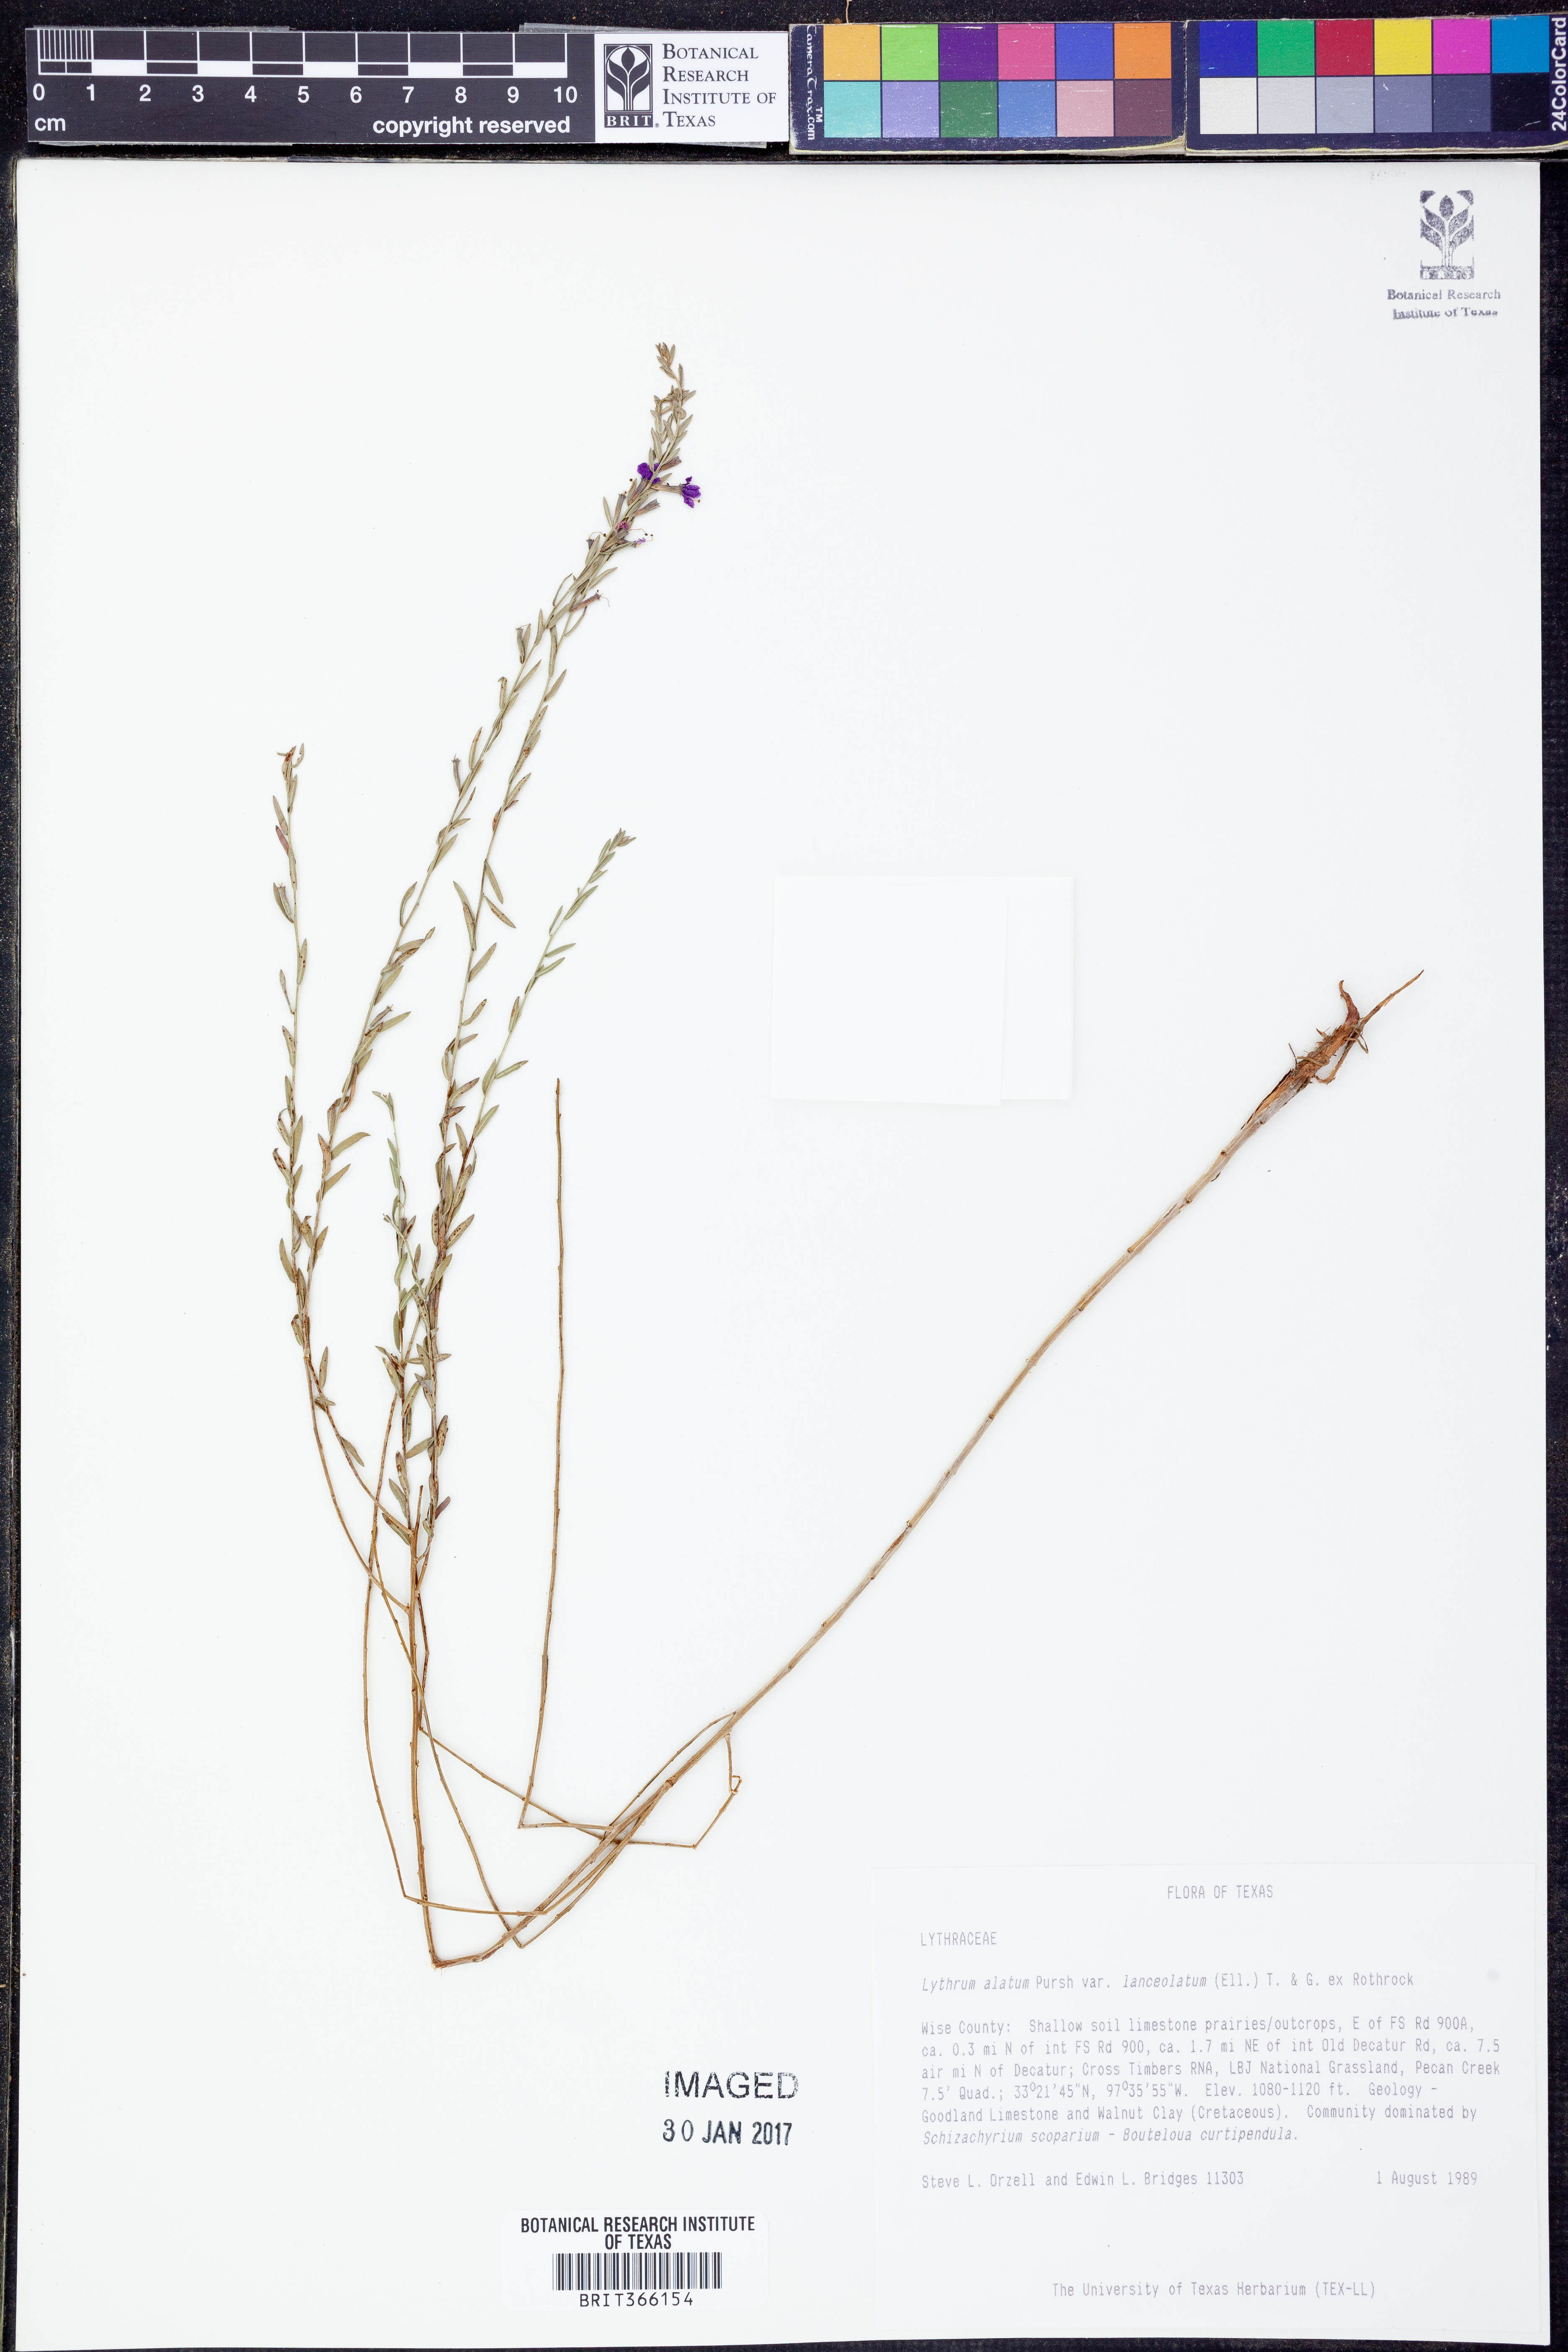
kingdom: Plantae
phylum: Tracheophyta
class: Magnoliopsida
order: Myrtales
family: Lythraceae
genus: Lythrum
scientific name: Lythrum alatum
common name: Winged loosestrife
